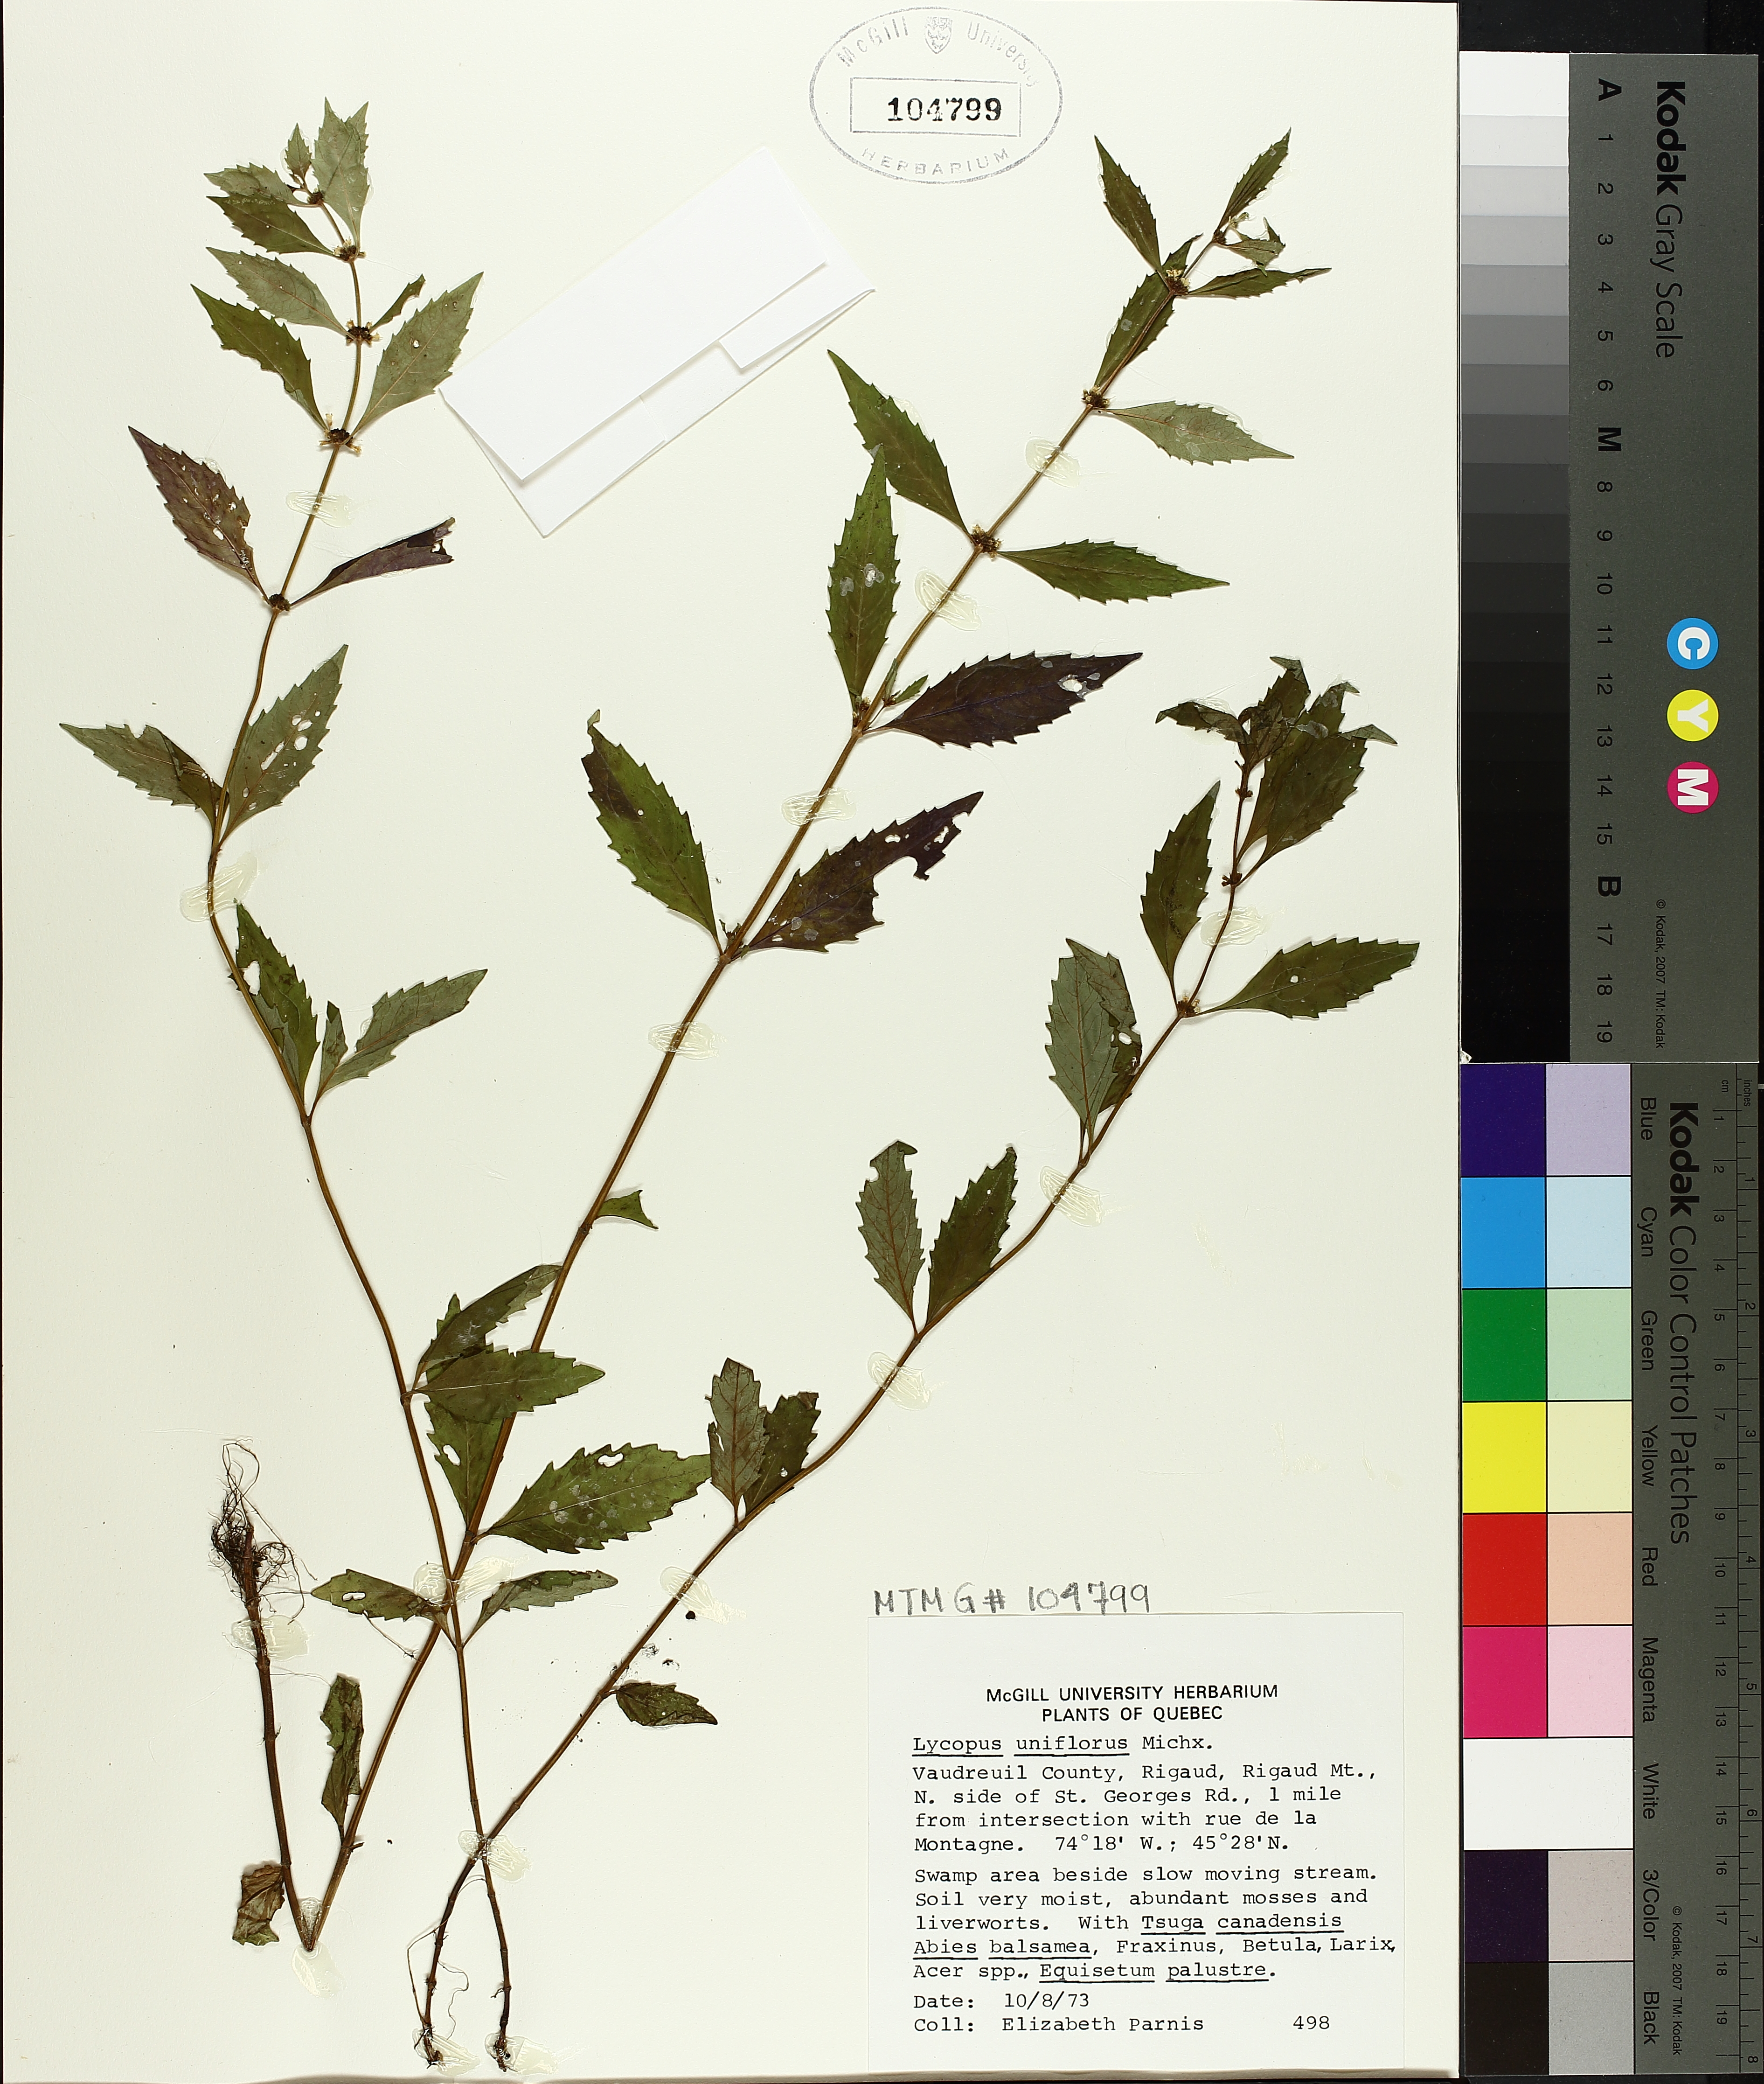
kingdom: Plantae
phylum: Tracheophyta
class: Magnoliopsida
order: Lamiales
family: Lamiaceae
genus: Lycopus
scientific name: Lycopus uniflorus
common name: Northern bugleweed
